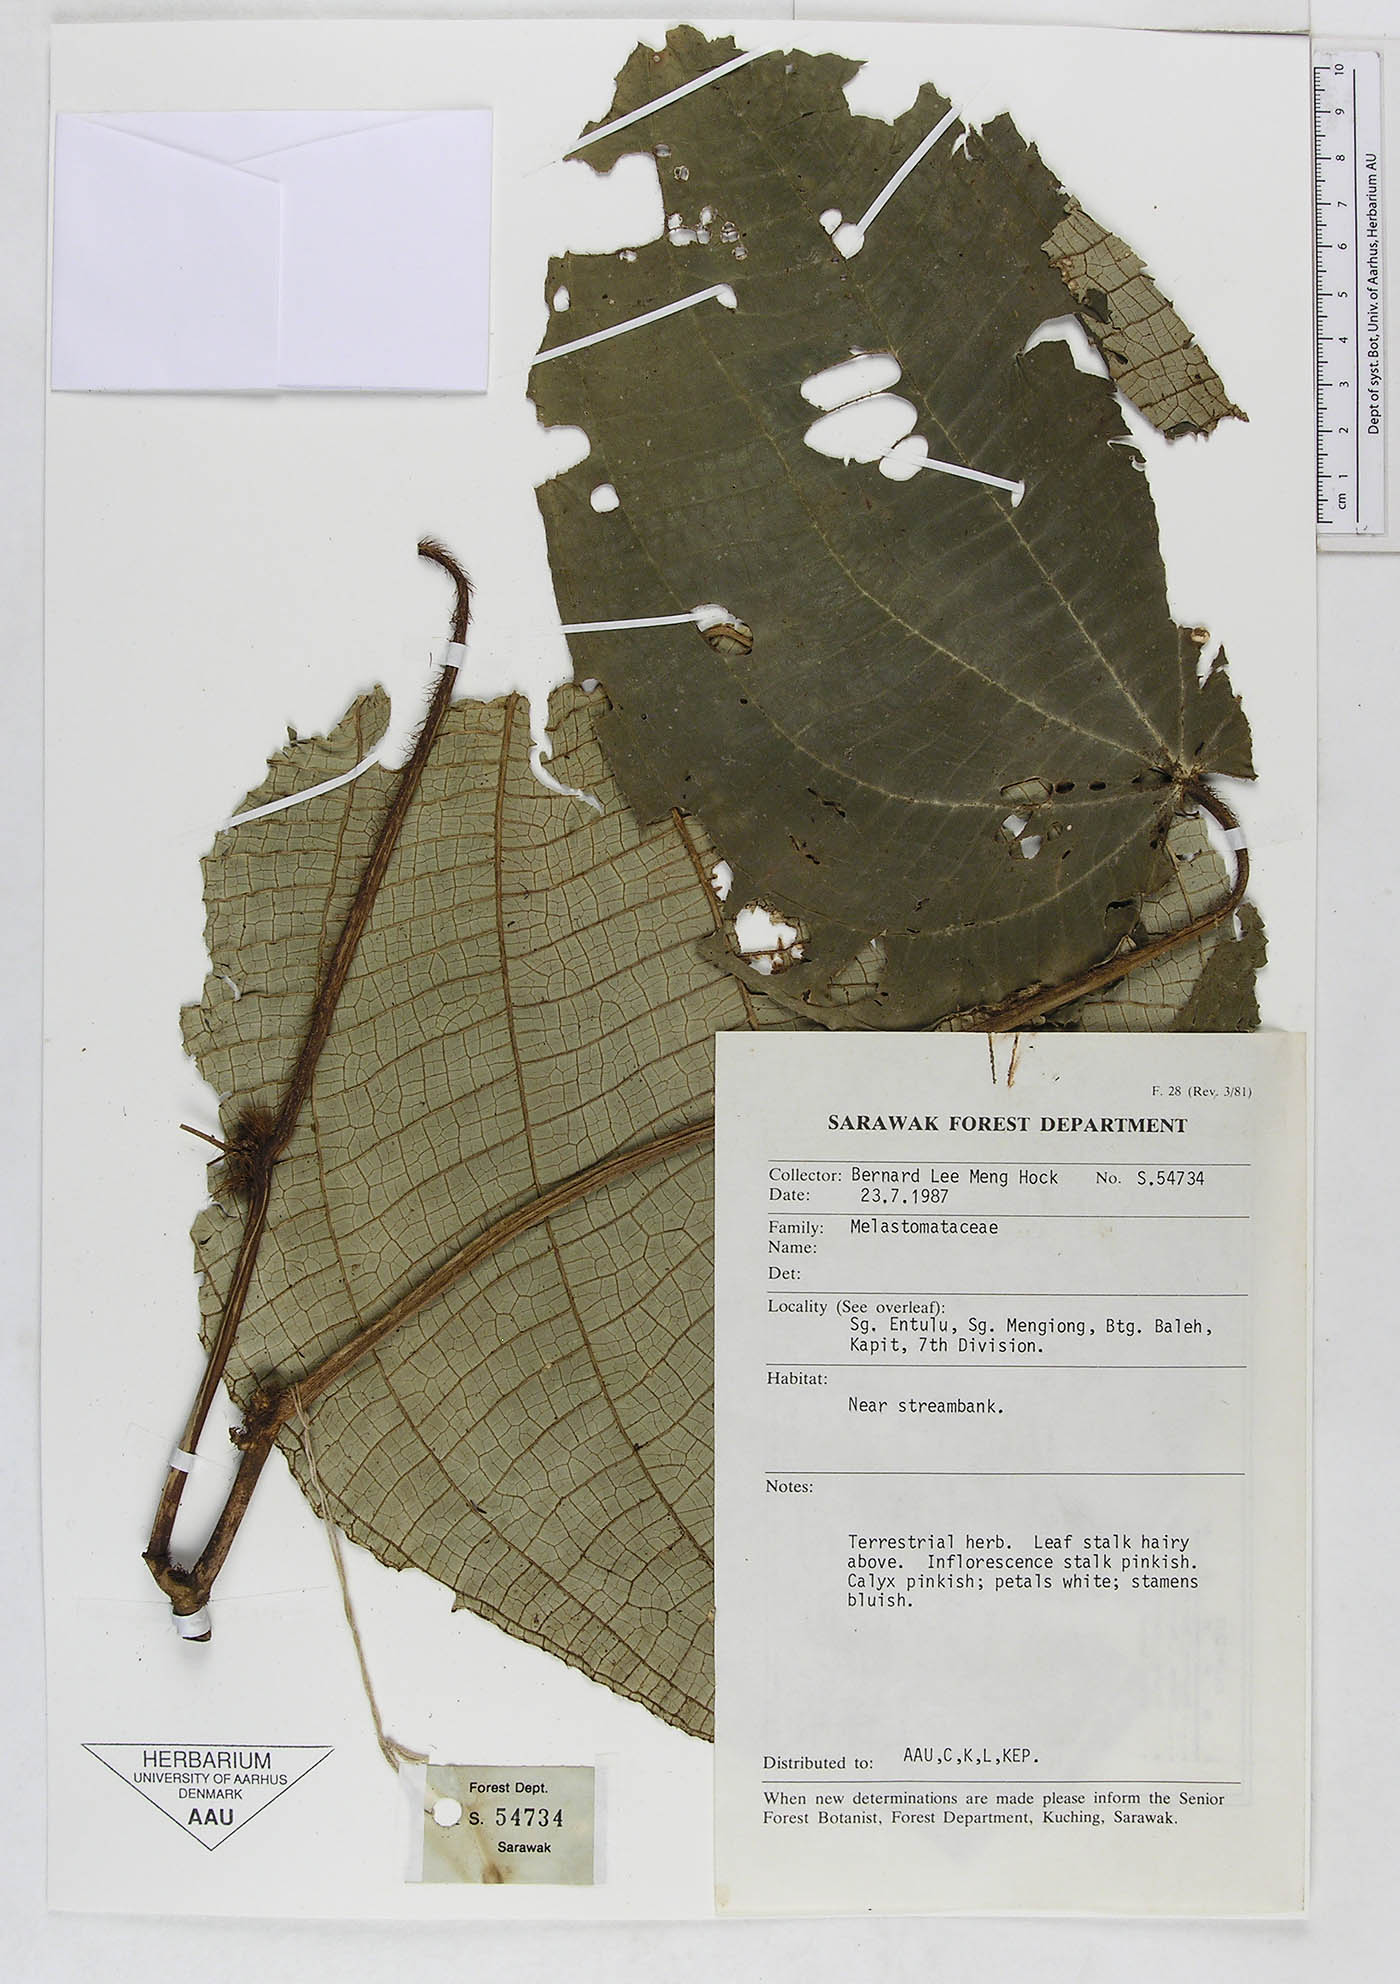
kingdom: Plantae
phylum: Tracheophyta
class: Magnoliopsida
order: Myrtales
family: Melastomataceae
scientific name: Melastomataceae
